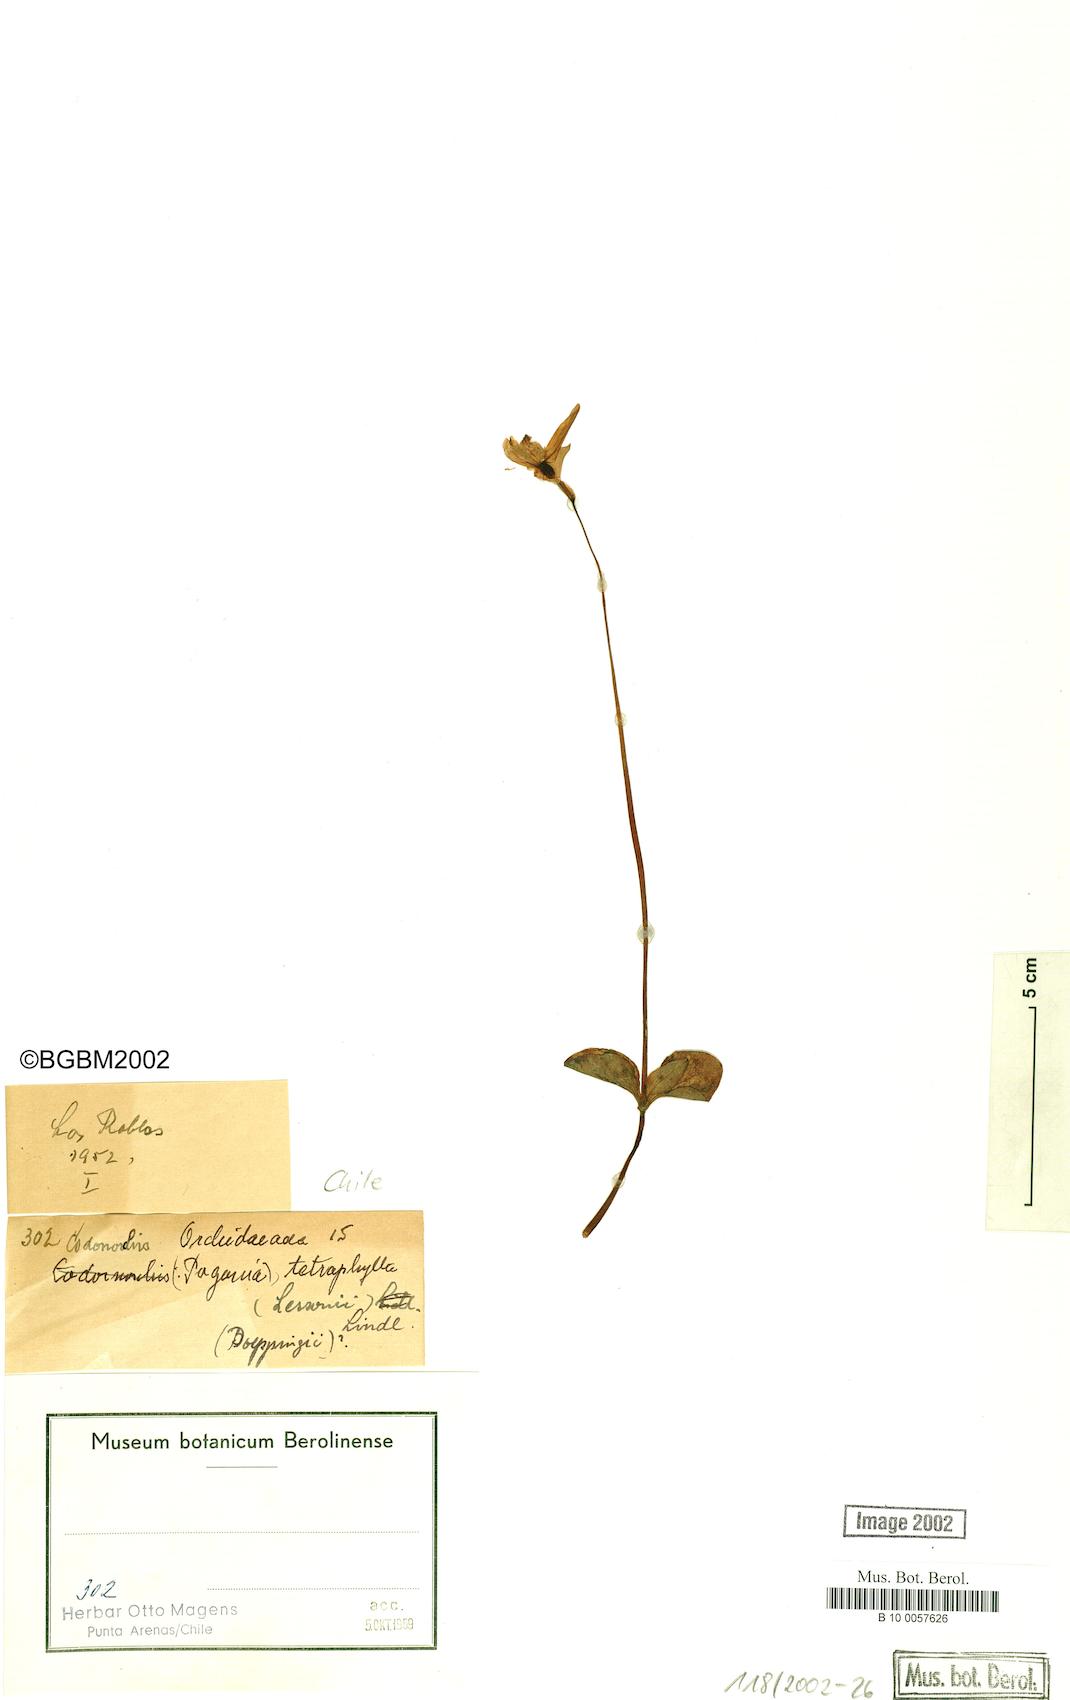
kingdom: Plantae
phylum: Tracheophyta
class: Liliopsida
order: Asparagales
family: Orchidaceae
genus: Codonorchis
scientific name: Codonorchis lessonii
